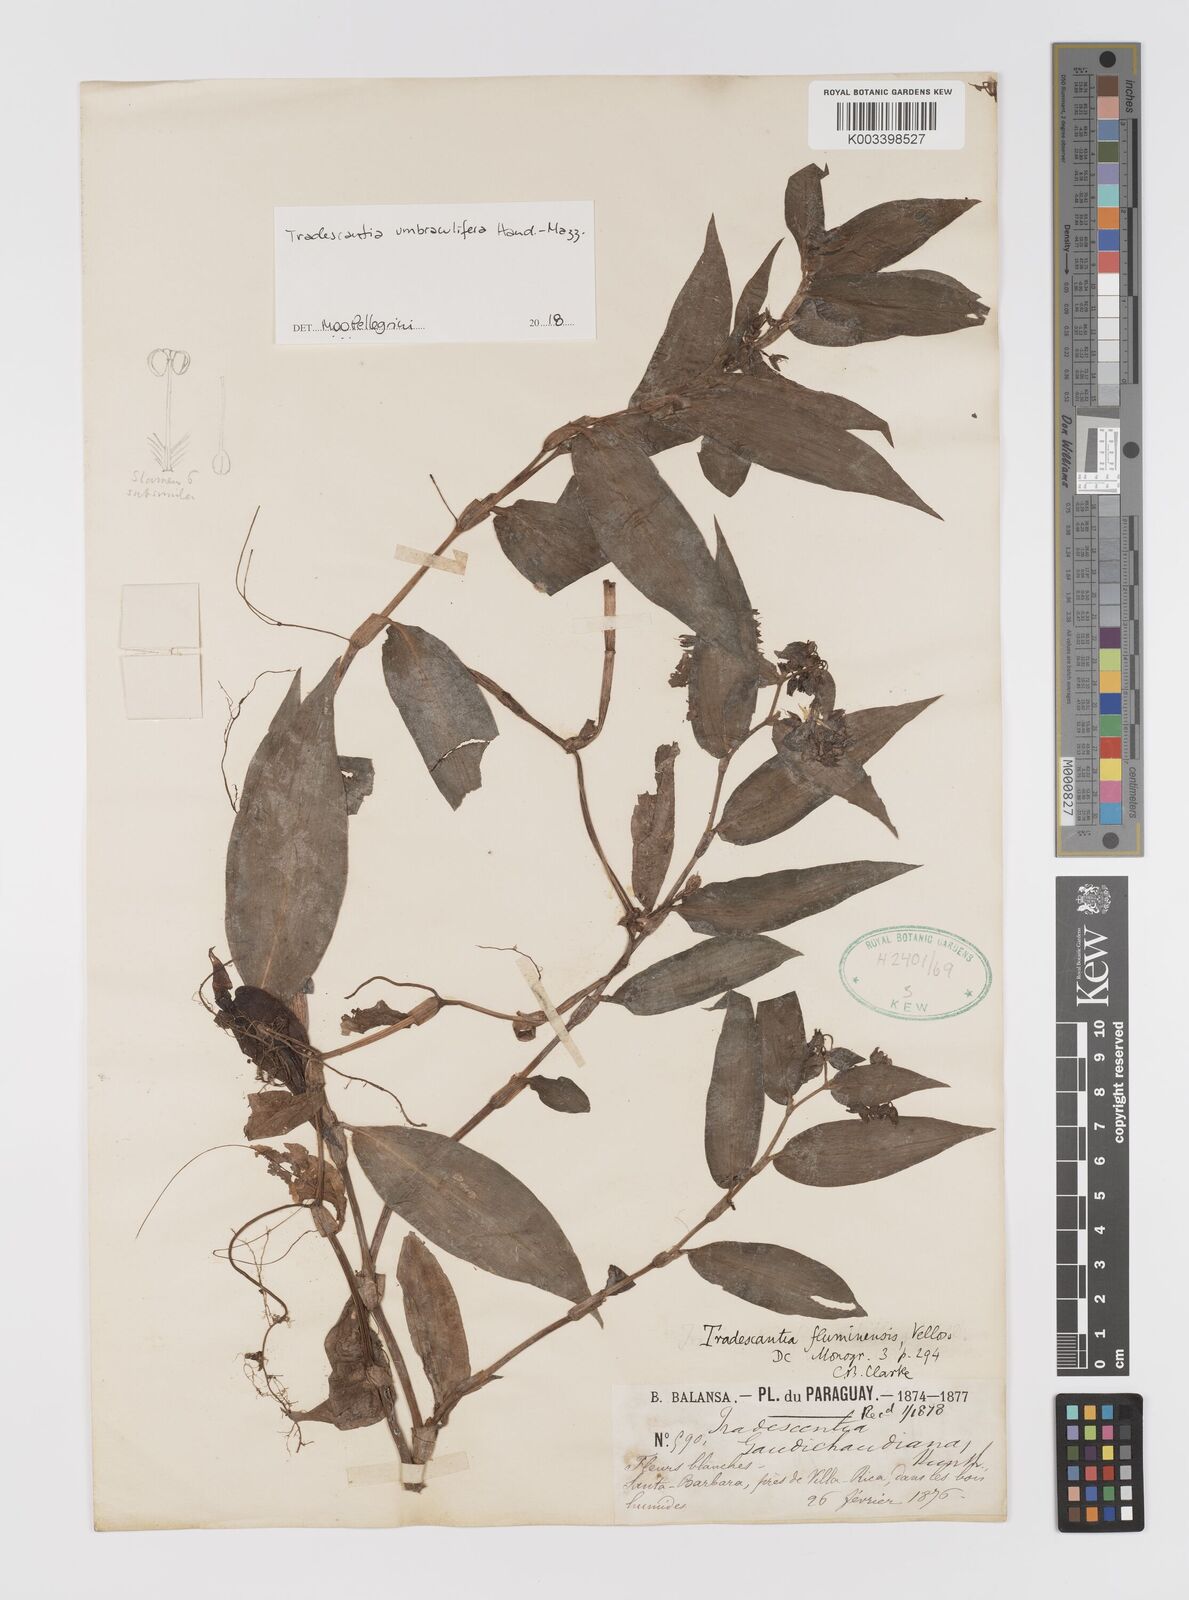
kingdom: Plantae
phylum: Tracheophyta
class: Liliopsida
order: Commelinales
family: Commelinaceae
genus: Tradescantia
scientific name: Tradescantia umbraculifera
